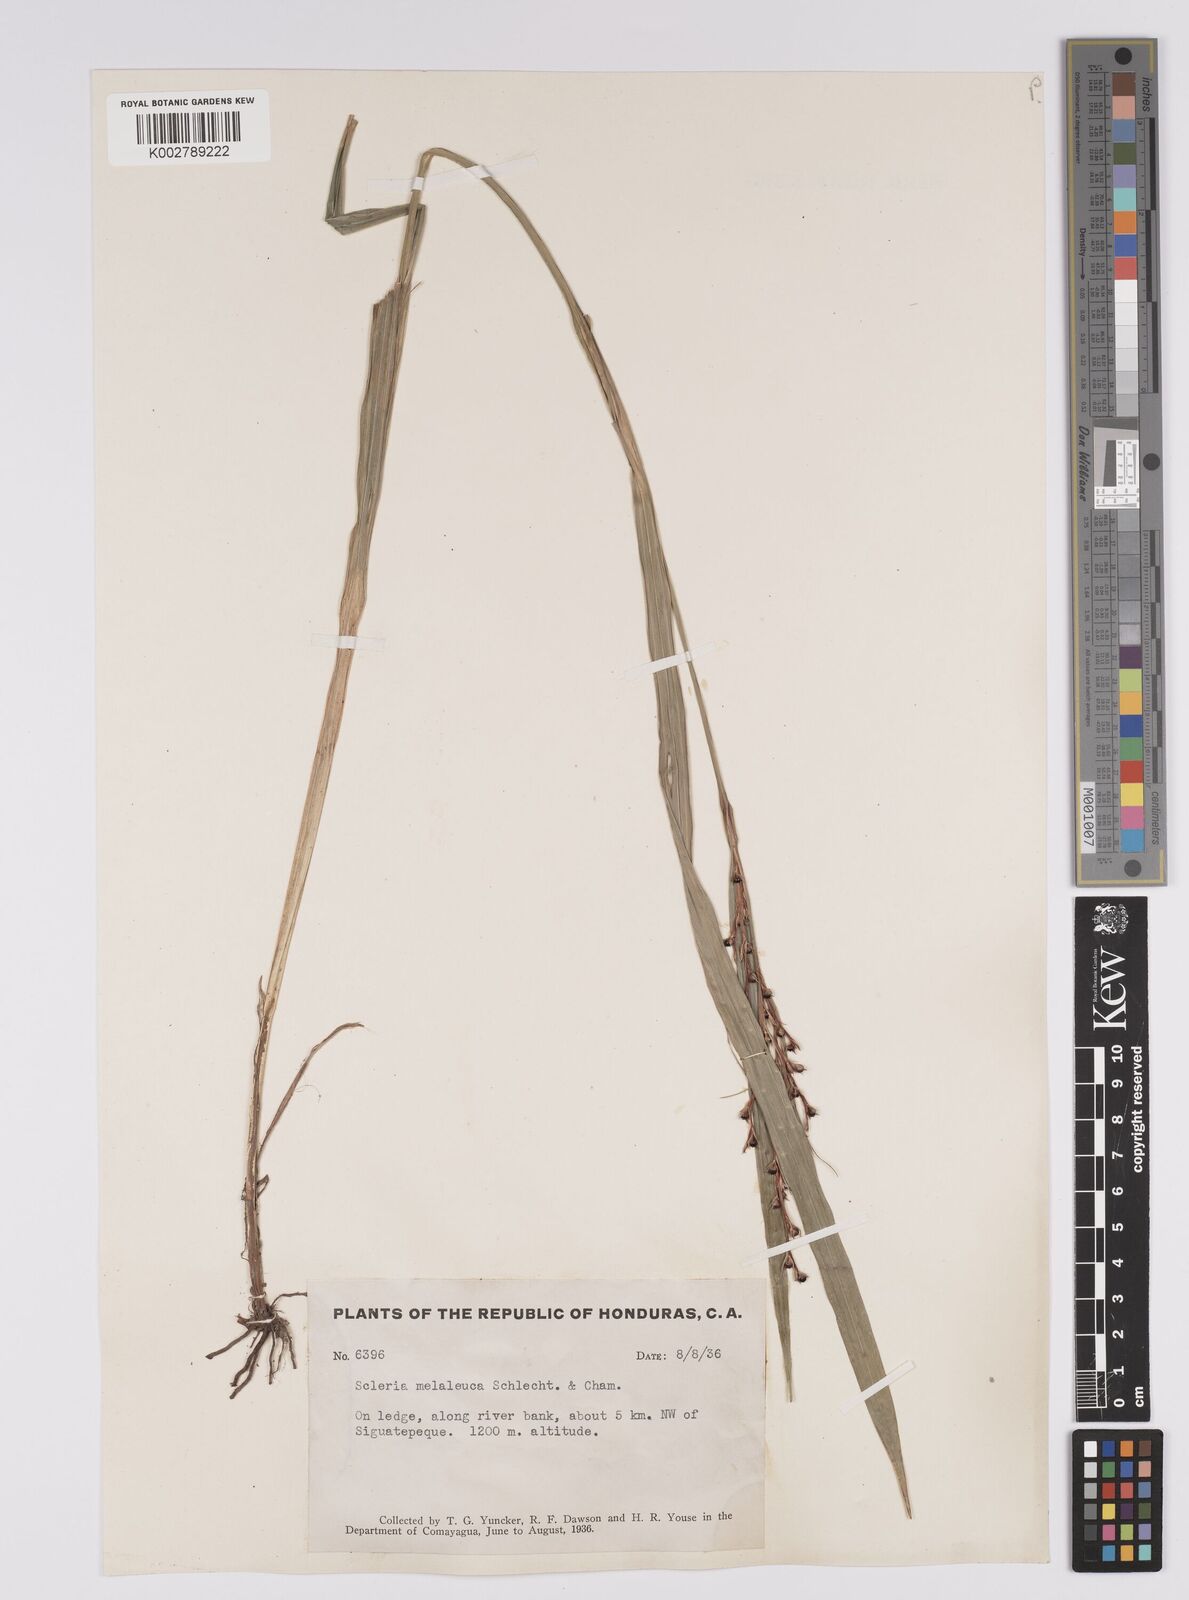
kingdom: Plantae
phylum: Tracheophyta
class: Liliopsida
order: Poales
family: Cyperaceae
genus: Scleria
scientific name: Scleria gaertneri
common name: Cortadera blanca
